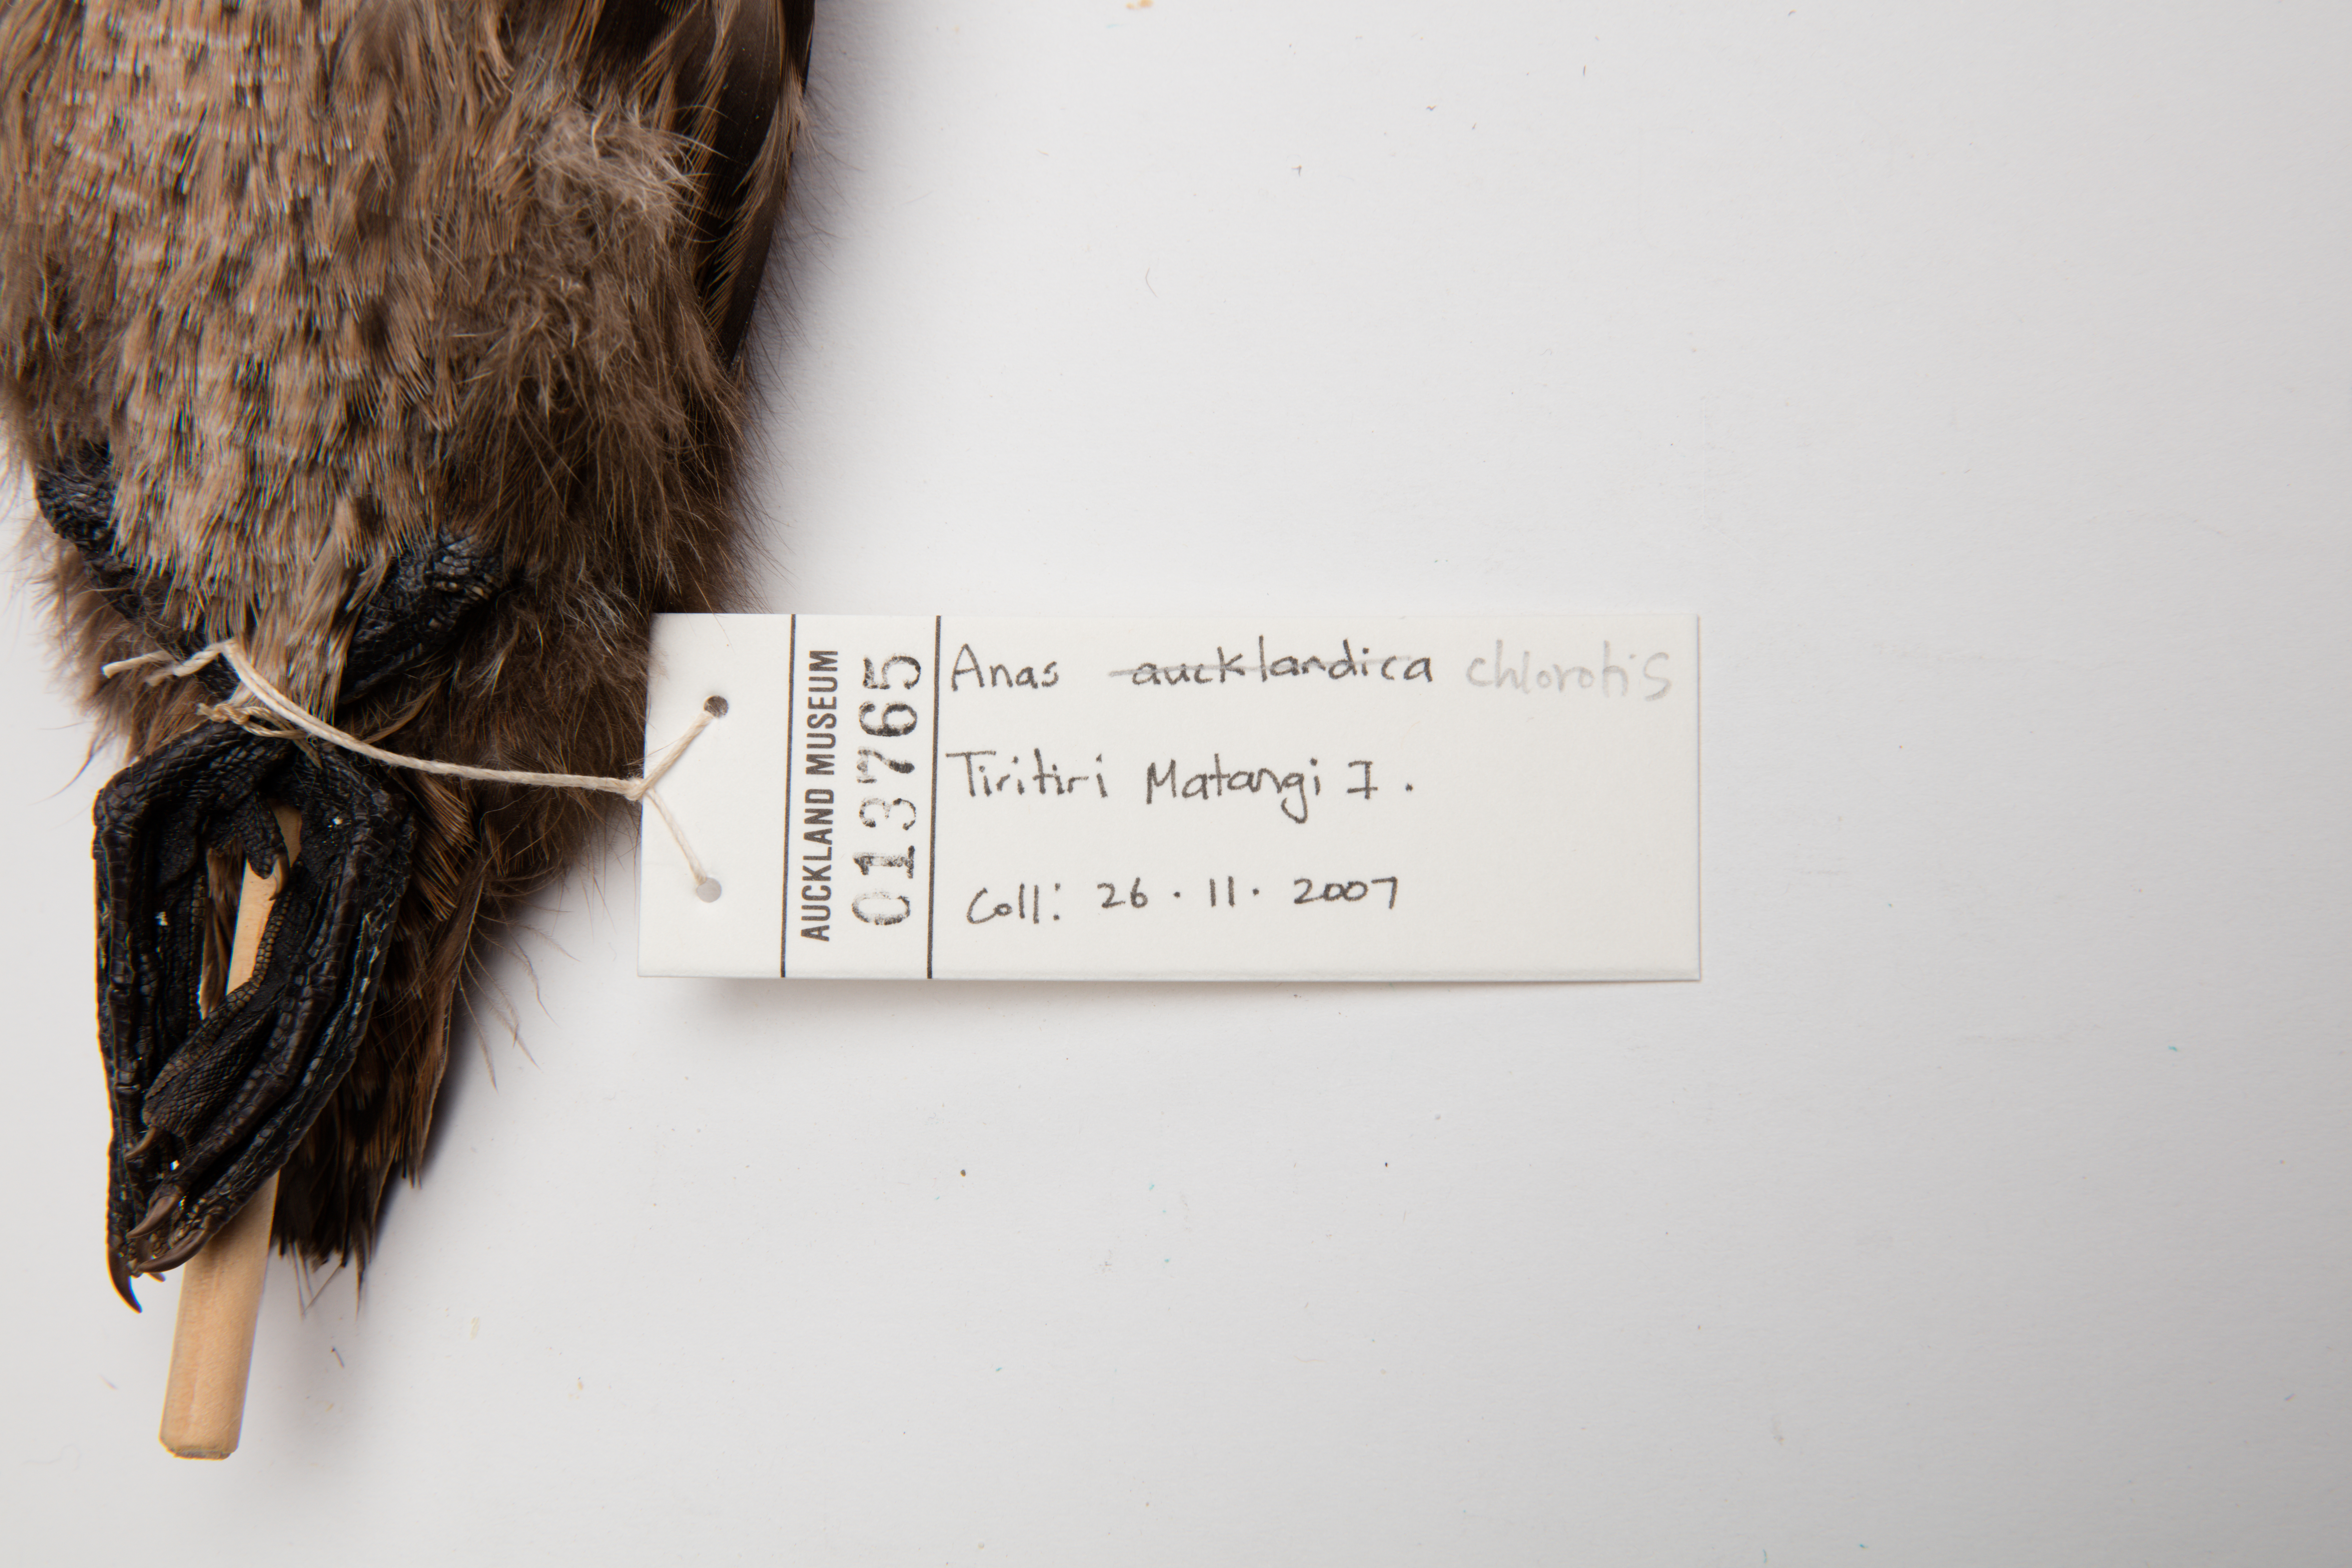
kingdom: Animalia
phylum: Chordata
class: Aves
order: Anseriformes
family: Anatidae
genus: Anas
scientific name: Anas chlorotis
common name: Brown teal
